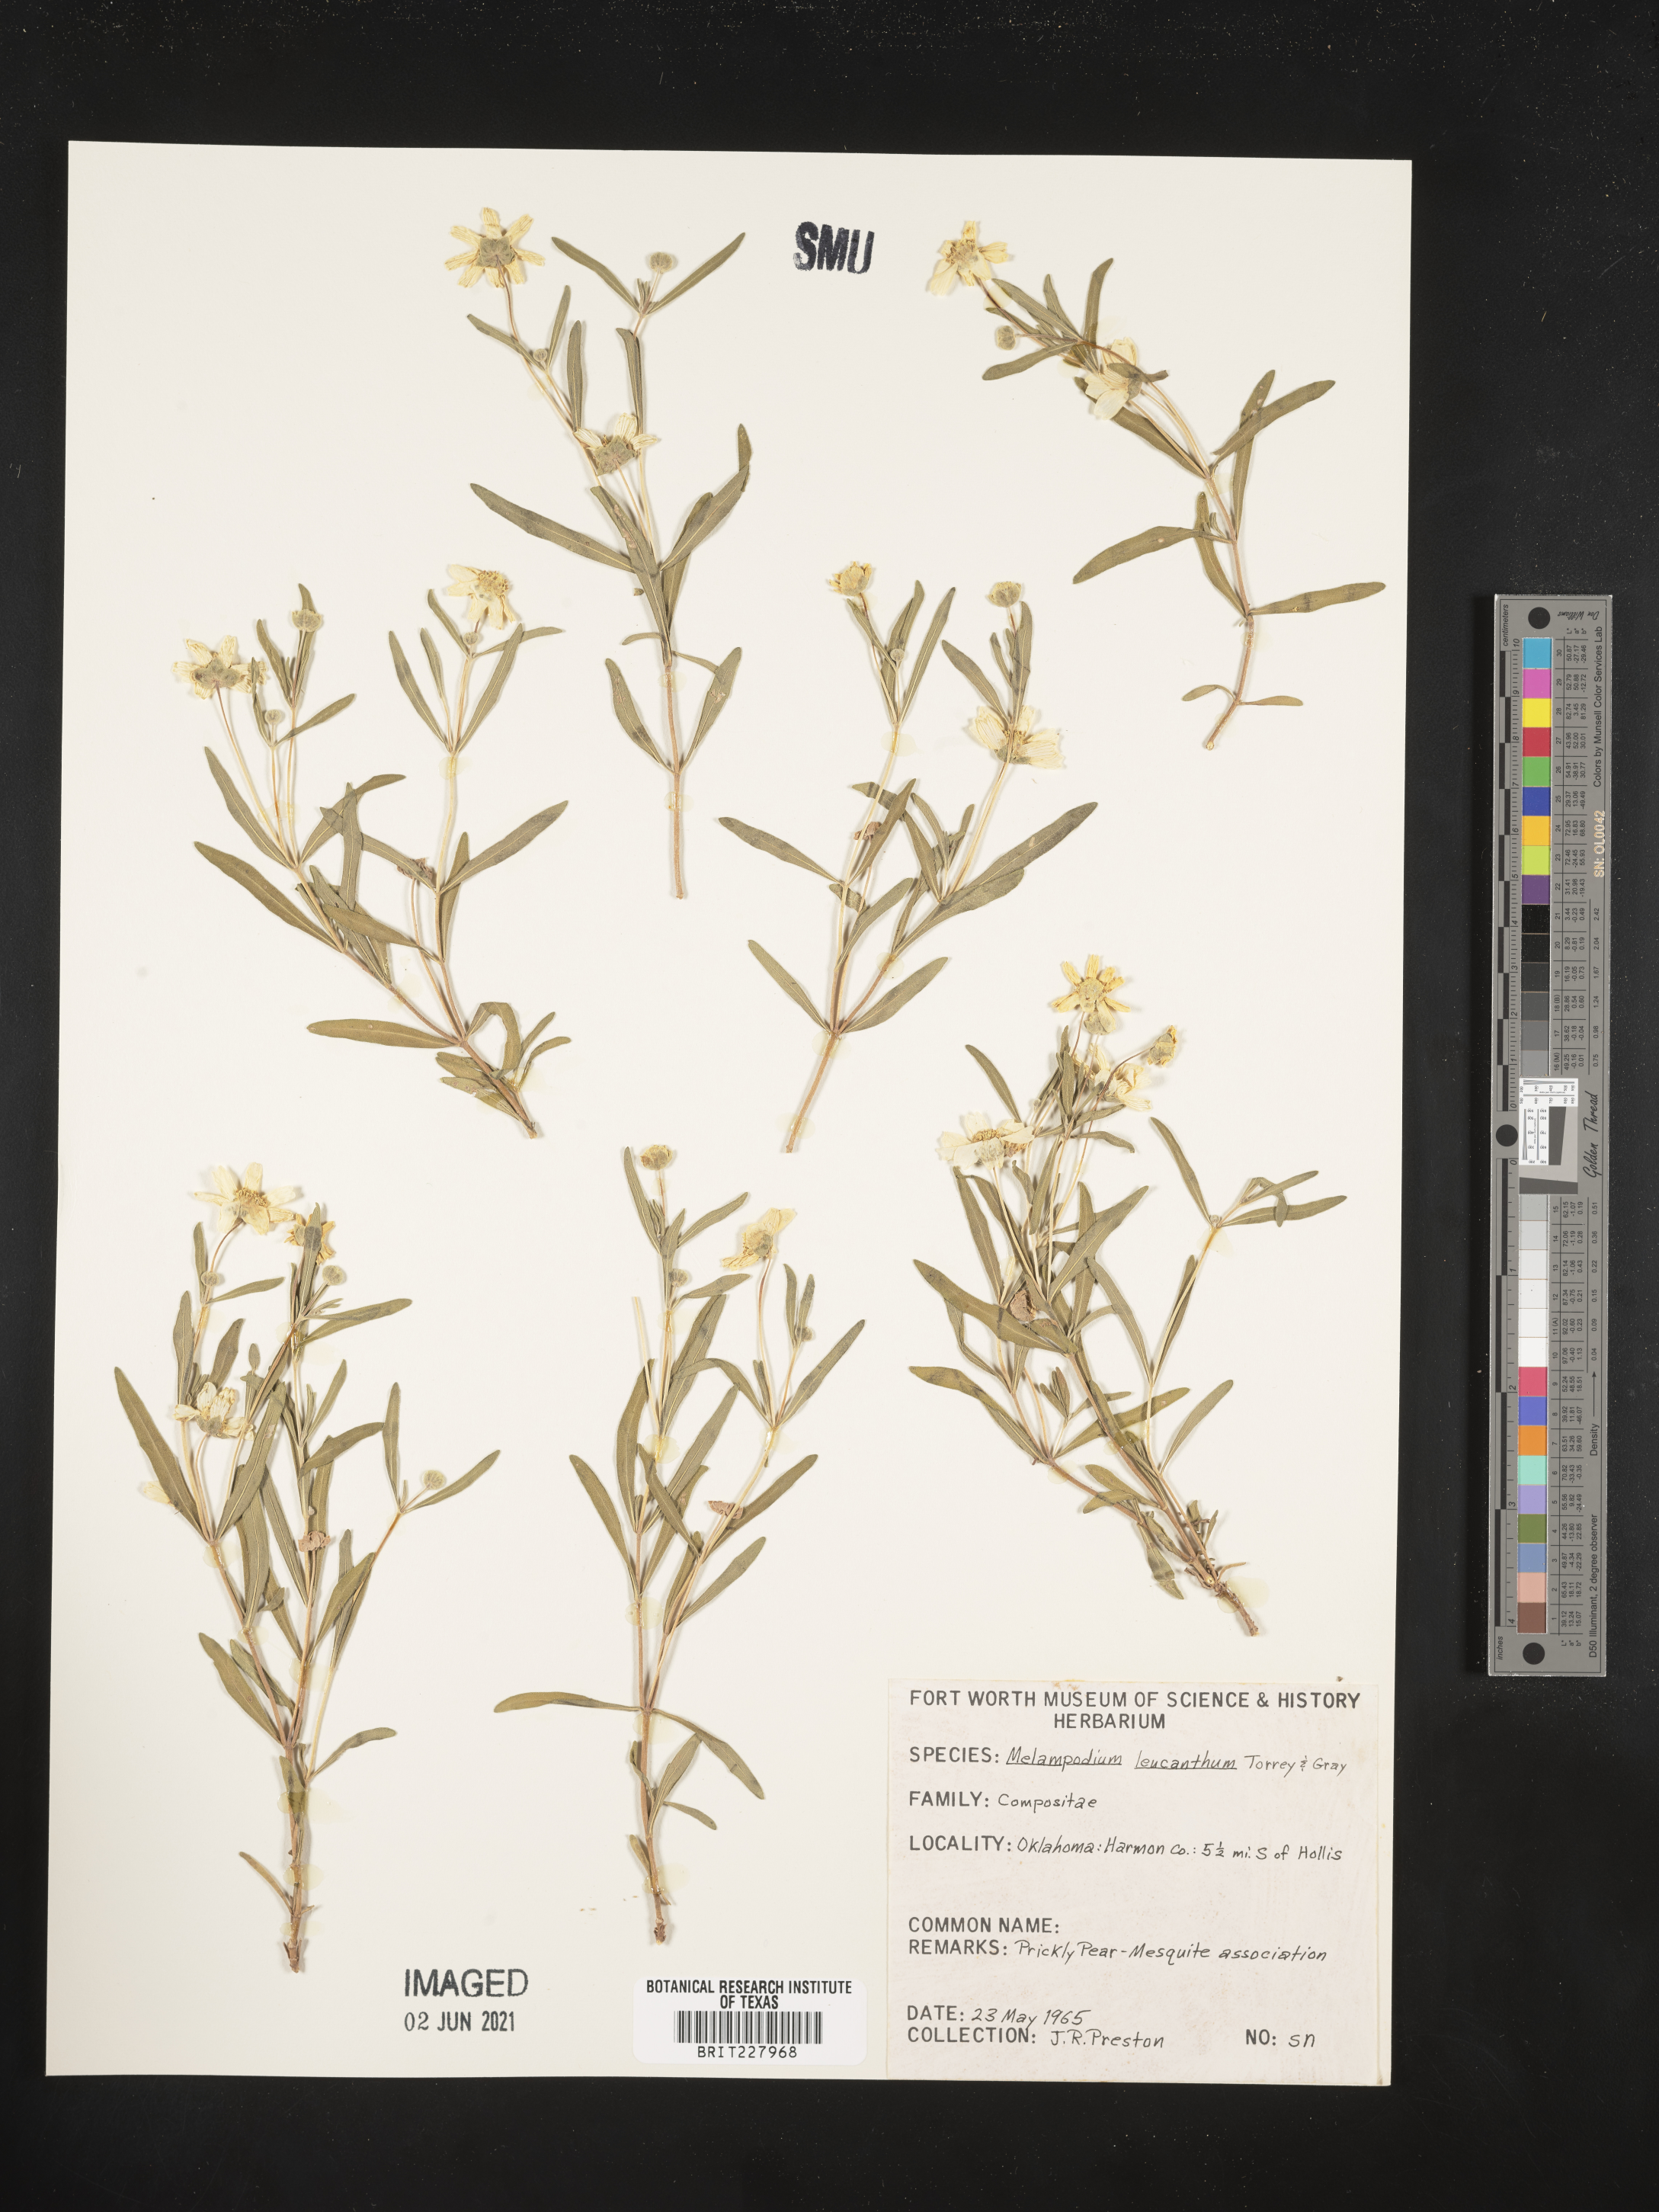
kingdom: Plantae
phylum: Tracheophyta
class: Magnoliopsida
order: Asterales
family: Asteraceae
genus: Melampodium
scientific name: Melampodium leucanthum
